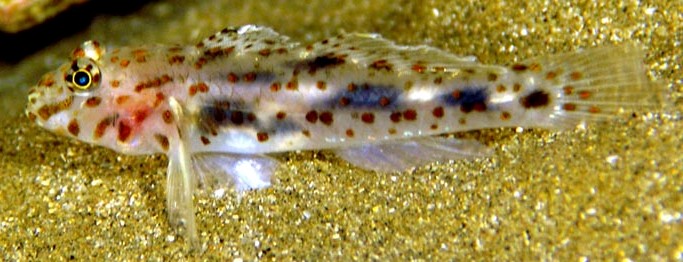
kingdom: Animalia
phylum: Chordata
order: Perciformes
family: Gobiidae
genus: Fusigobius
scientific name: Fusigobius maximus
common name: Large sandgoby
